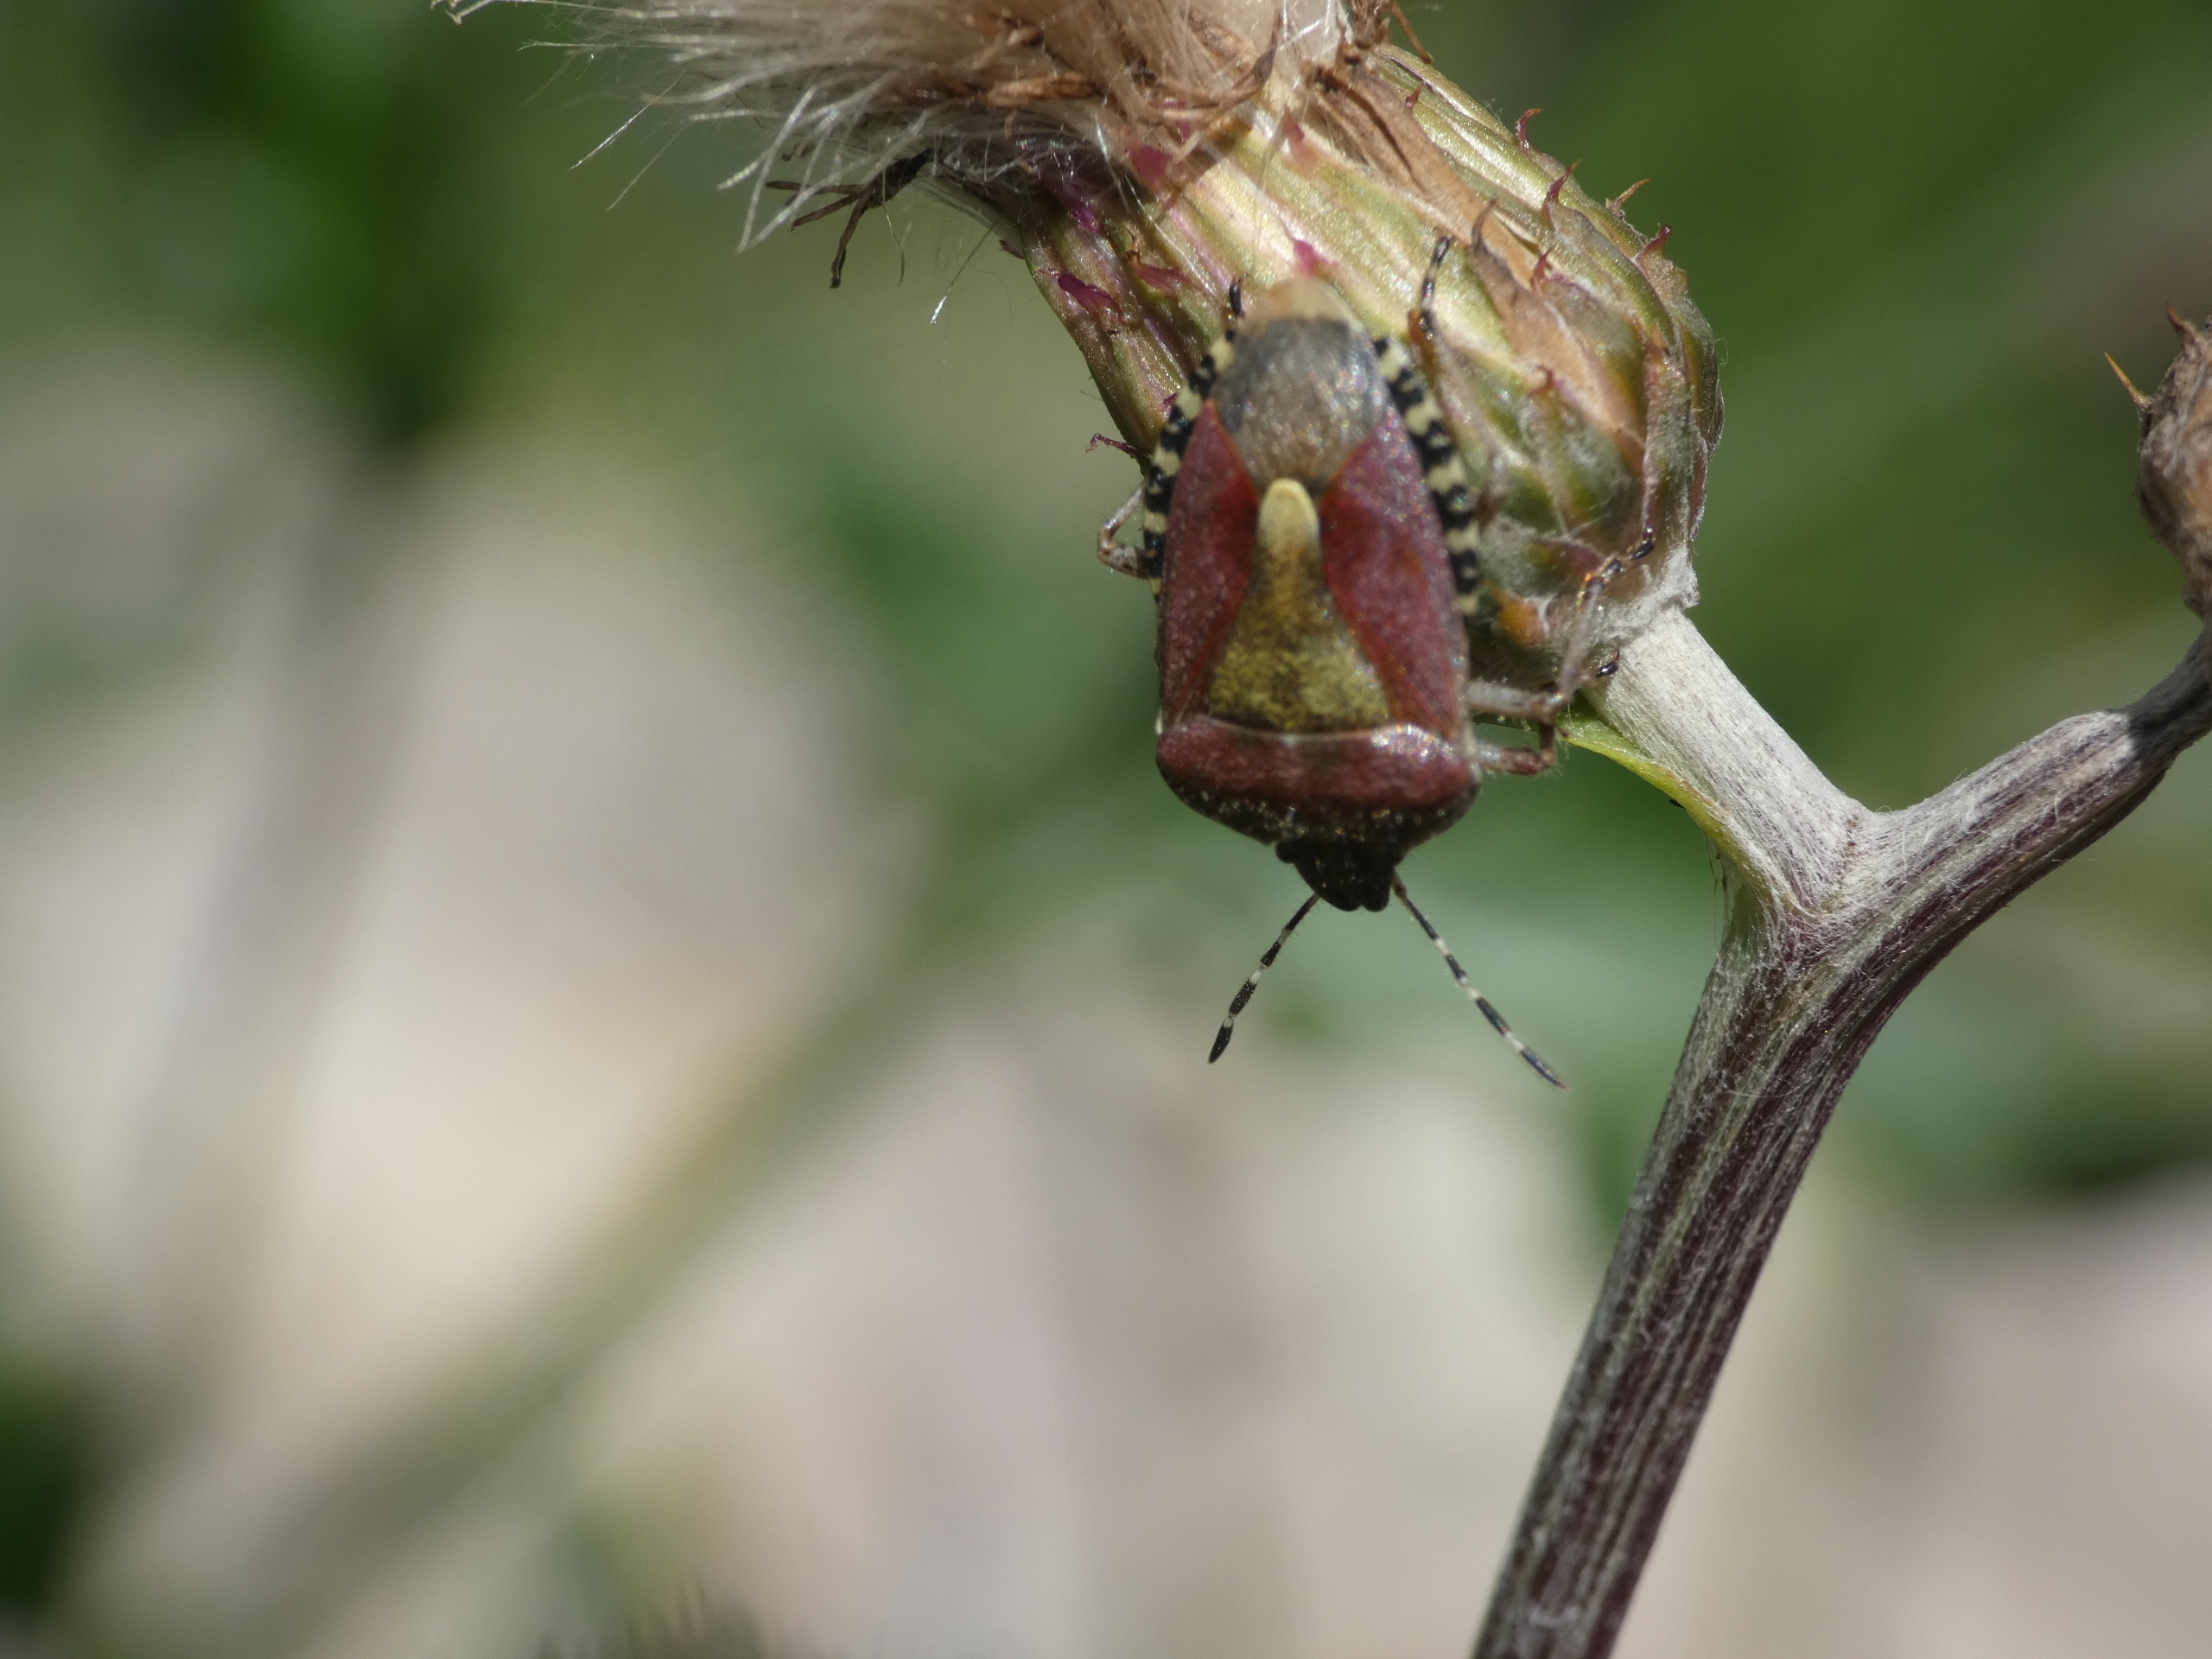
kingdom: Animalia
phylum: Arthropoda
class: Insecta
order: Hemiptera
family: Pentatomidae
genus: Dolycoris
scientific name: Dolycoris baccarum
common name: Almindelig bærtæge
